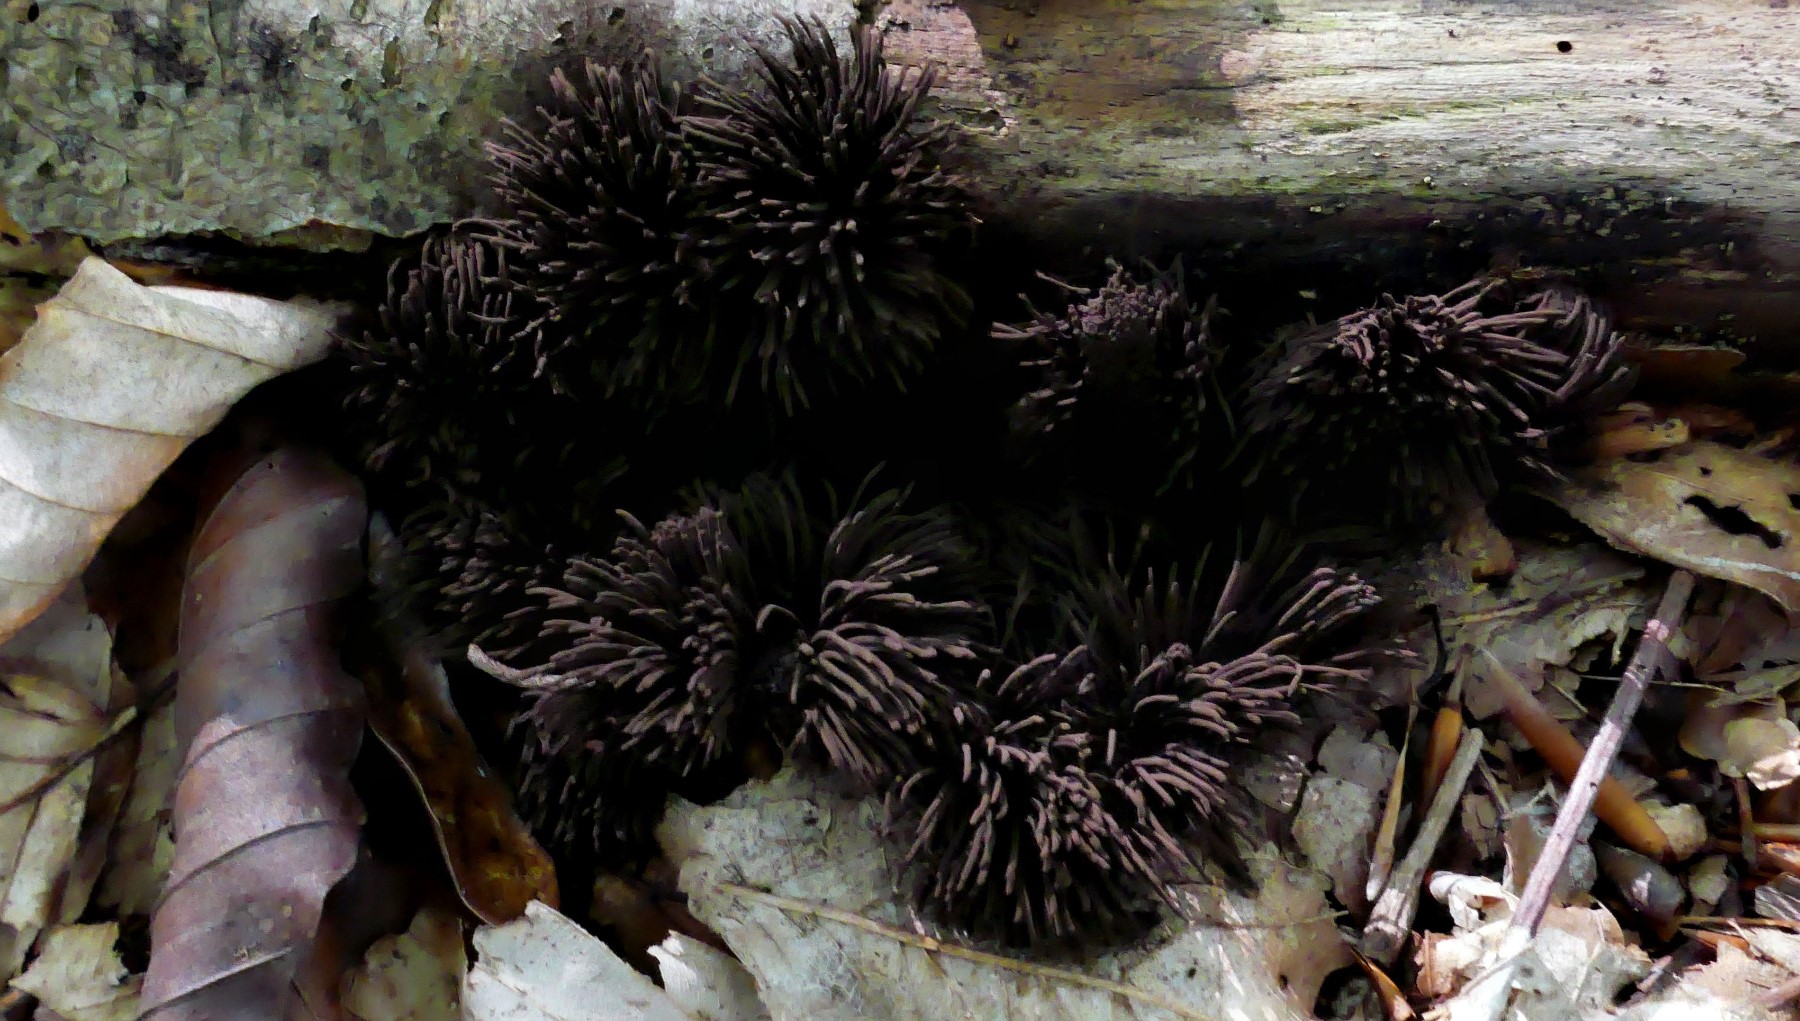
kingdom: Protozoa
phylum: Mycetozoa
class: Myxomycetes
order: Stemonitidales
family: Stemonitidaceae
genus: Stemonitis
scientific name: Stemonitis fusca
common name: sodbrun støvkølle
